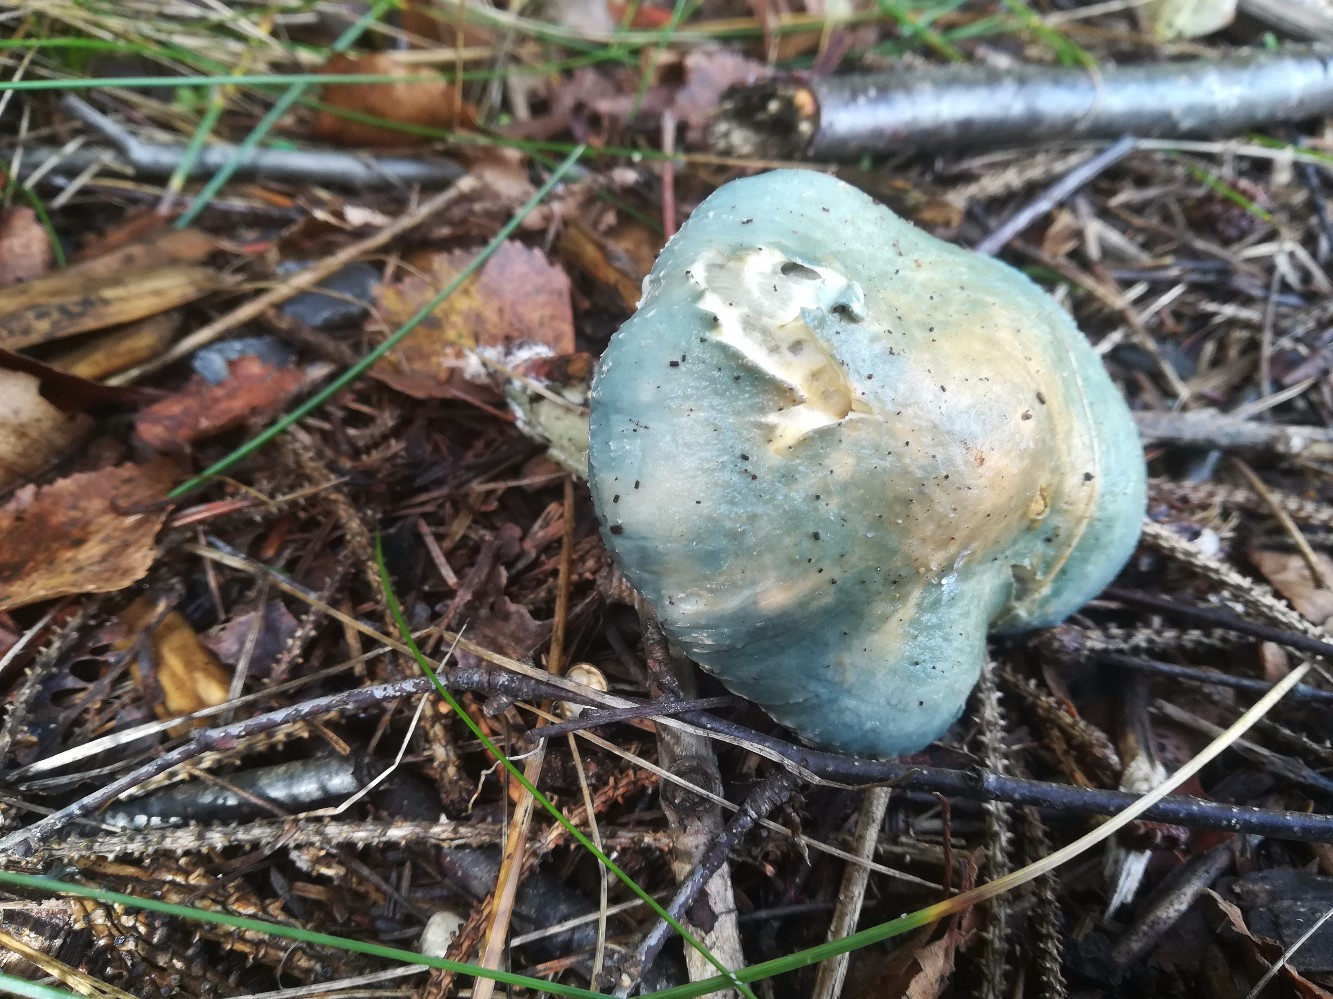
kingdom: Fungi
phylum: Basidiomycota
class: Agaricomycetes
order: Agaricales
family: Strophariaceae
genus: Stropharia
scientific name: Stropharia aeruginosa
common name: spanskgrøn bredblad
